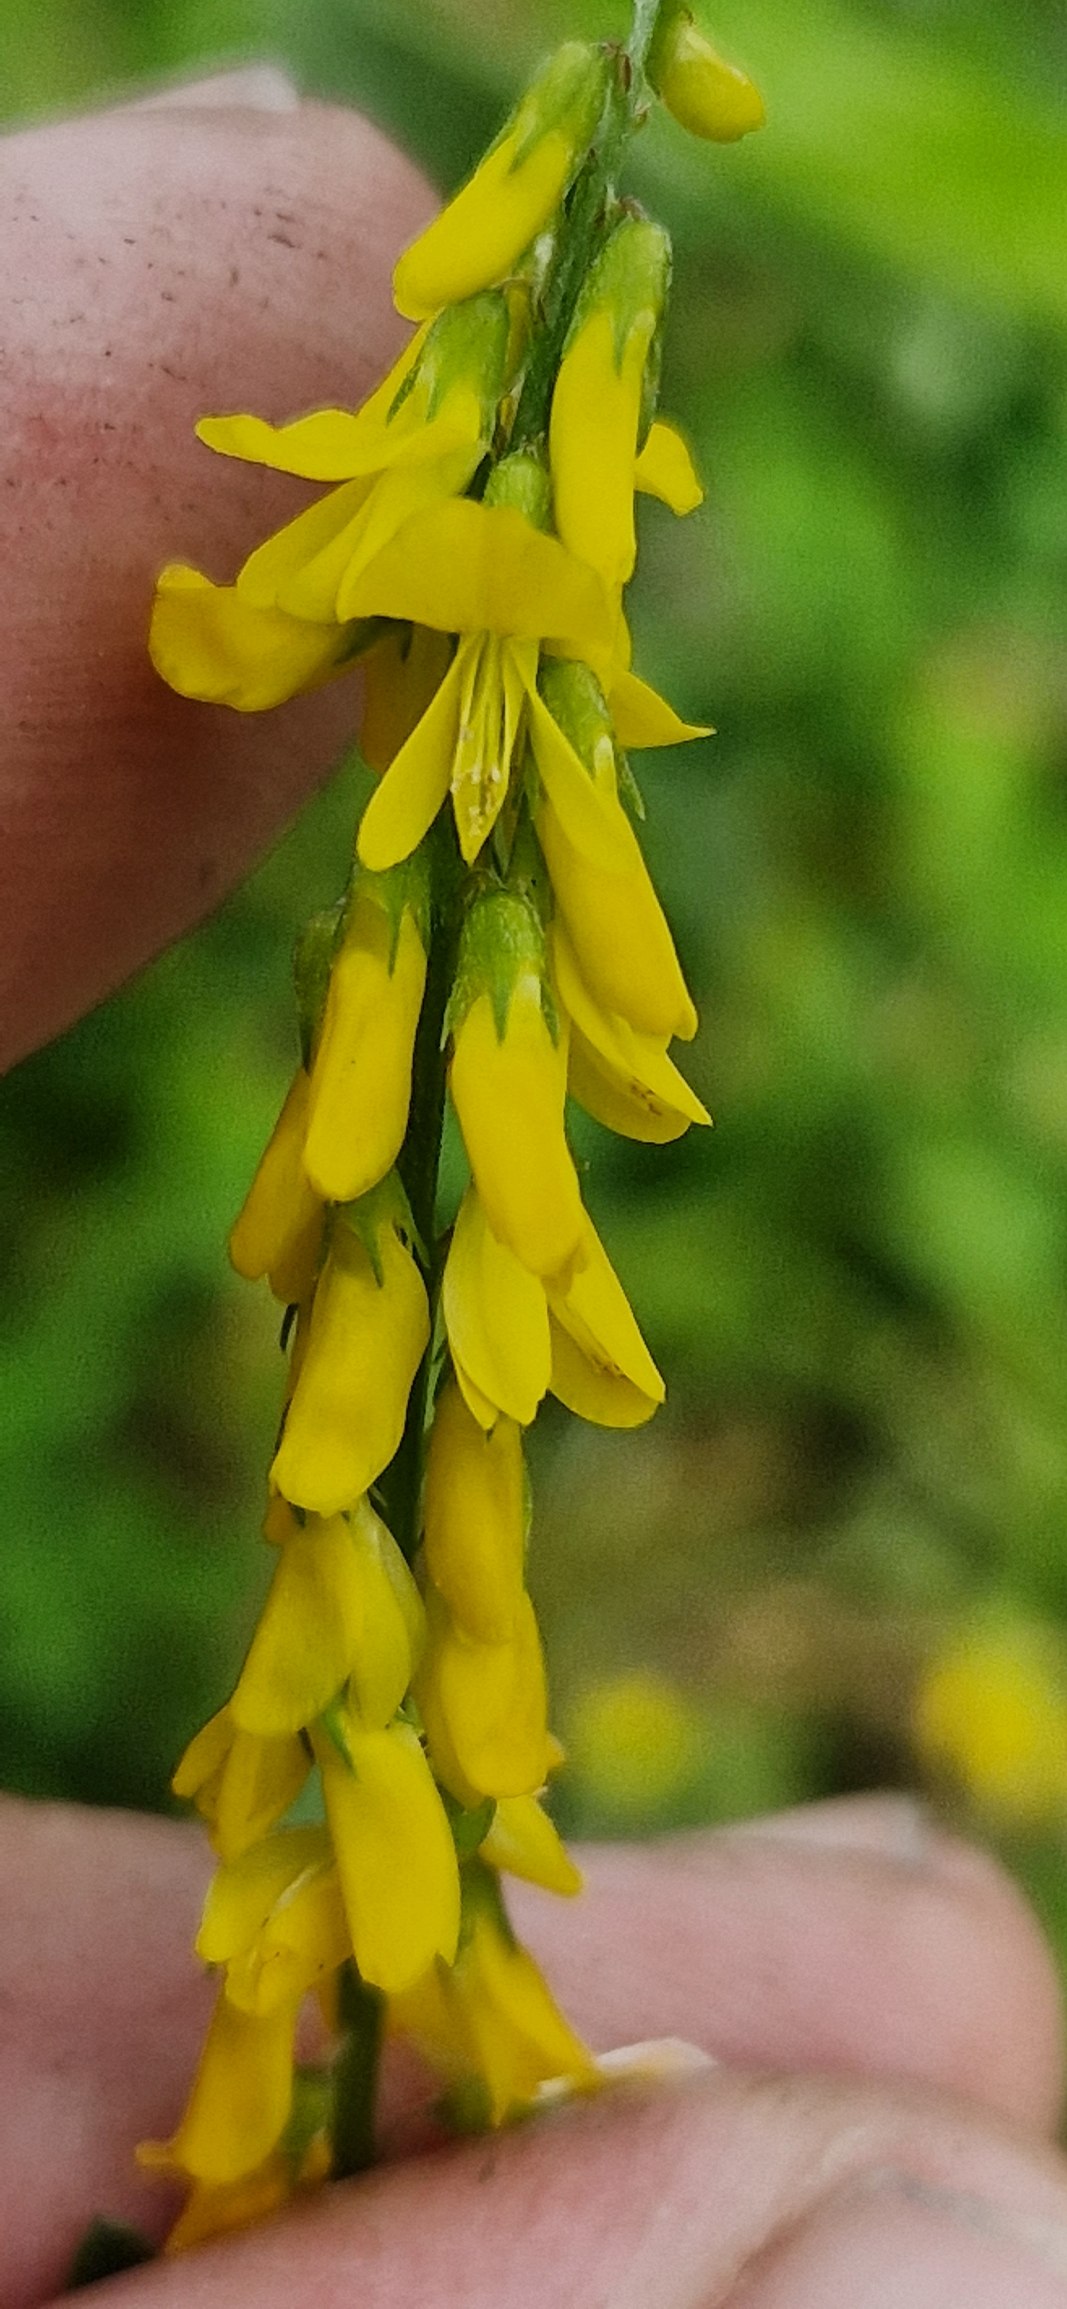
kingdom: Plantae
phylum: Tracheophyta
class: Magnoliopsida
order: Fabales
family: Fabaceae
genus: Melilotus
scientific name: Melilotus altissimus
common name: Høj stenkløver
